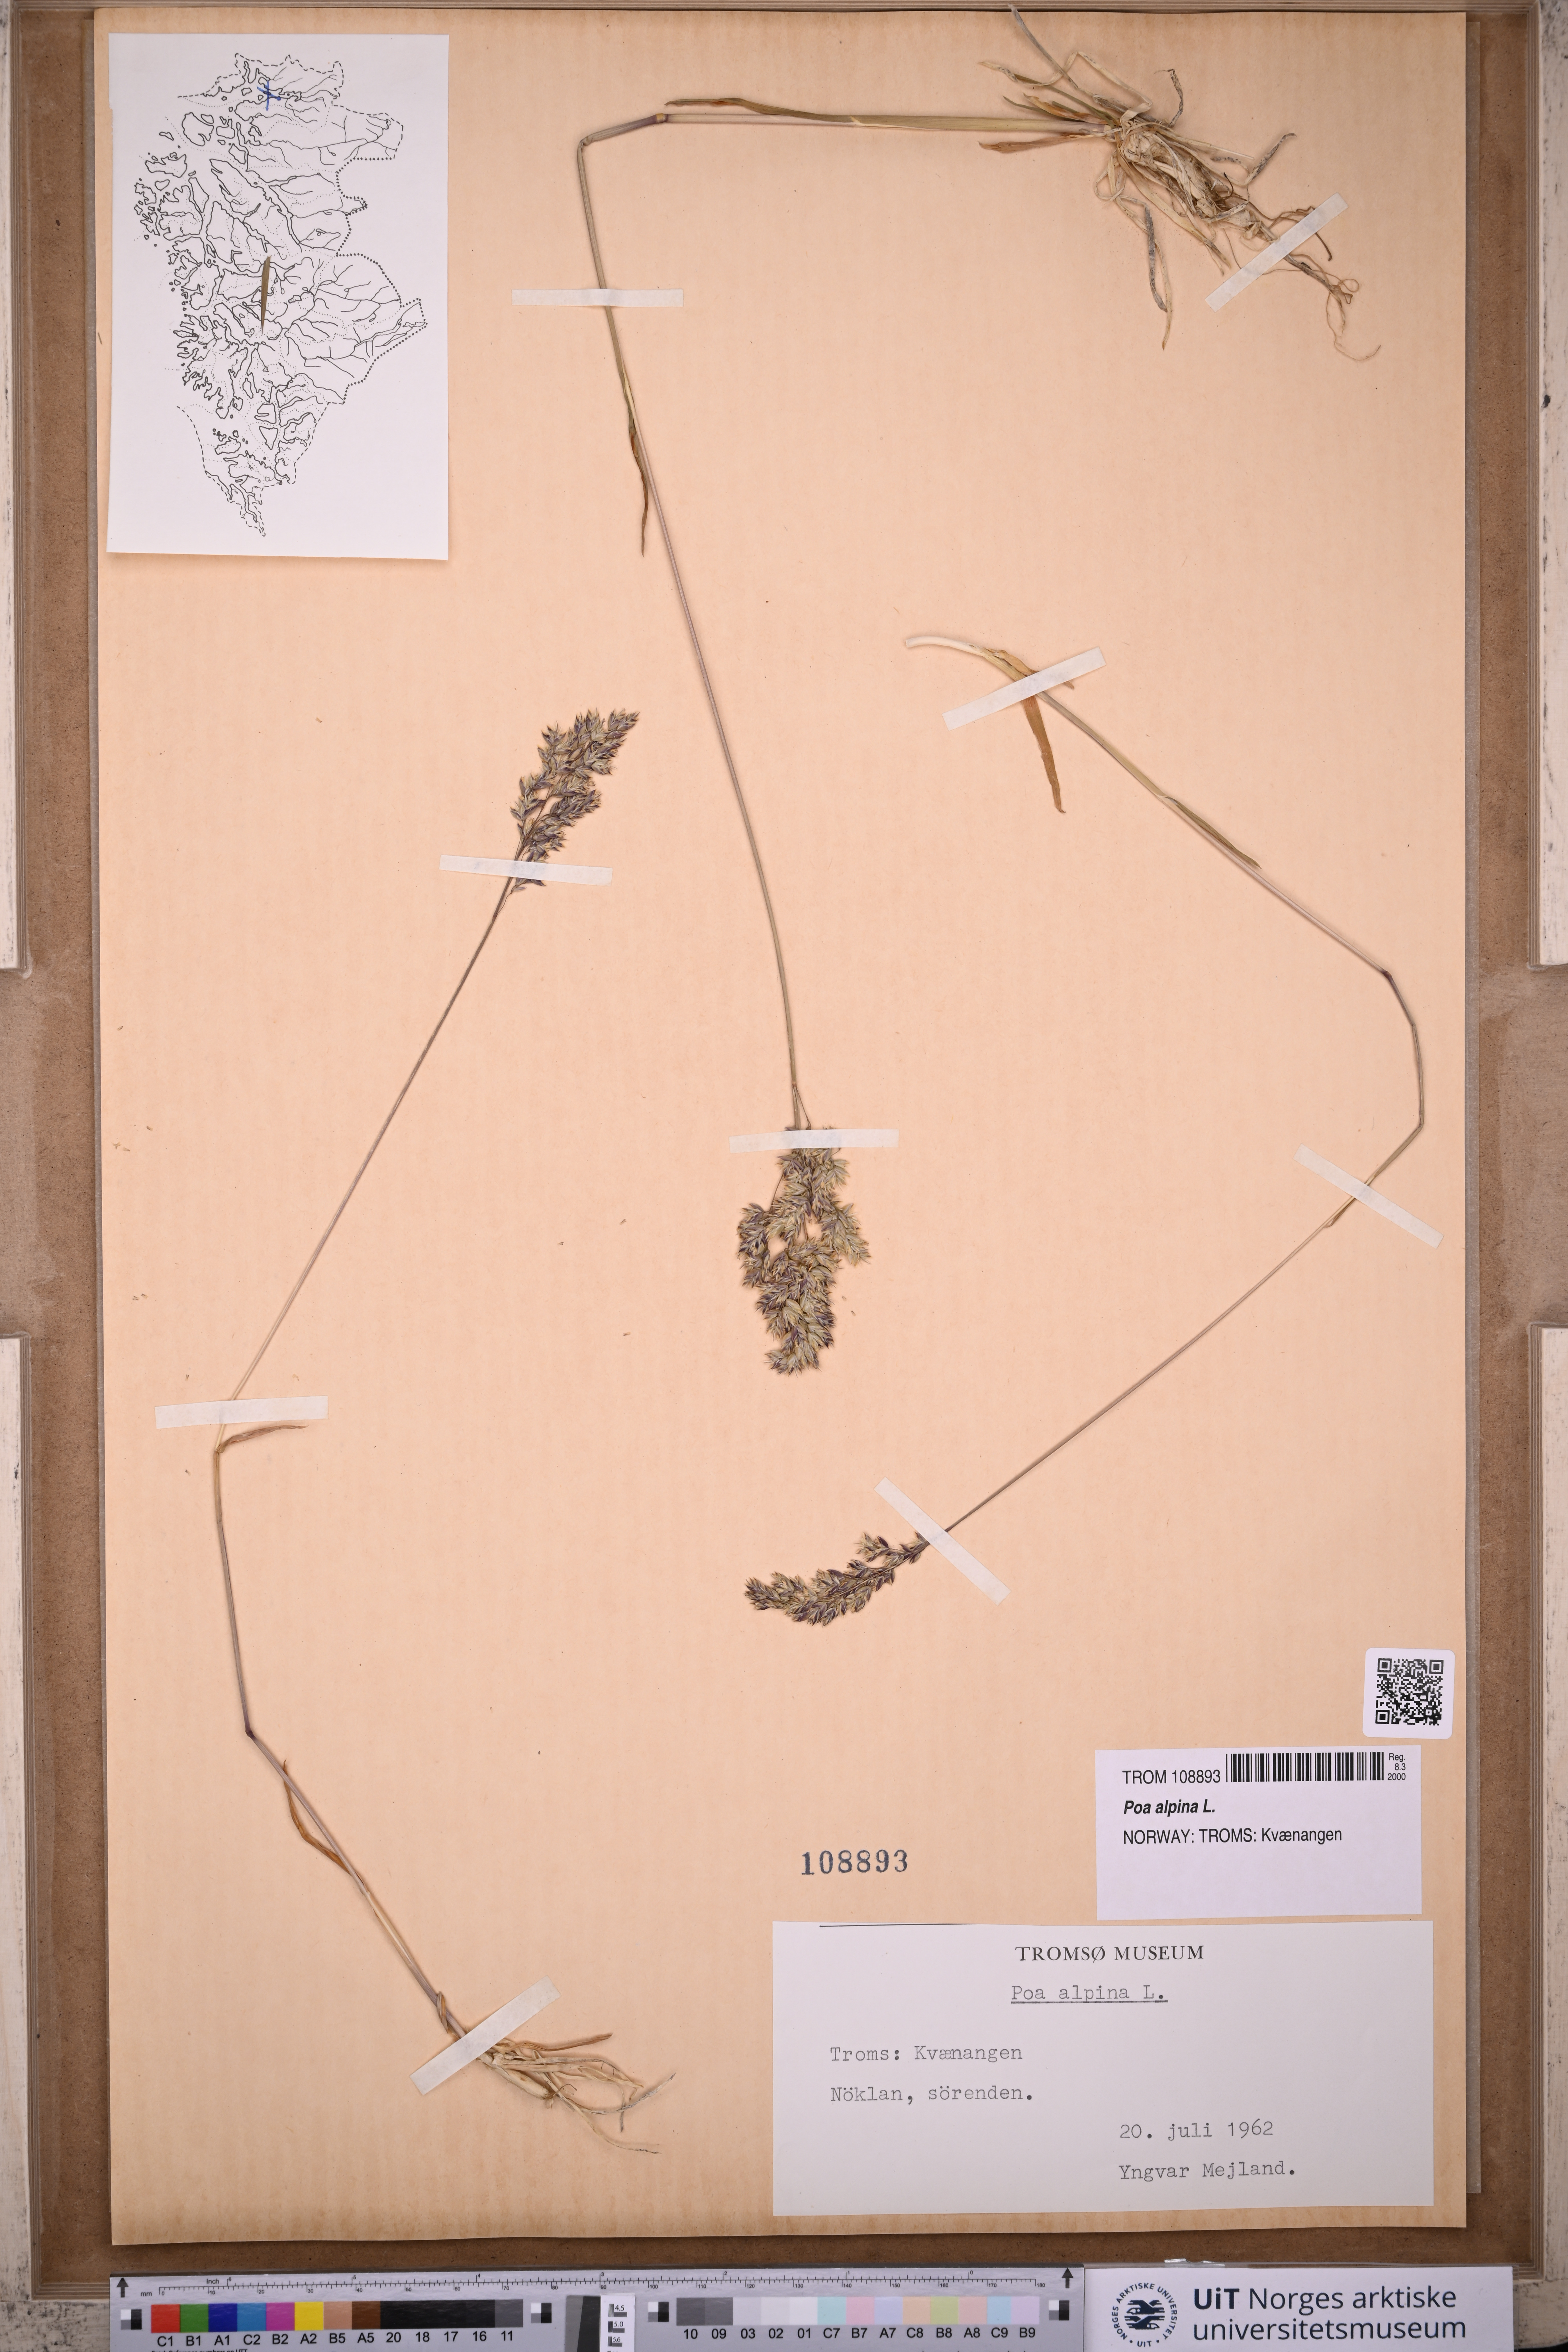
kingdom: Plantae
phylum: Tracheophyta
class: Liliopsida
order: Poales
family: Poaceae
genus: Poa
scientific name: Poa alpina
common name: Alpine bluegrass
